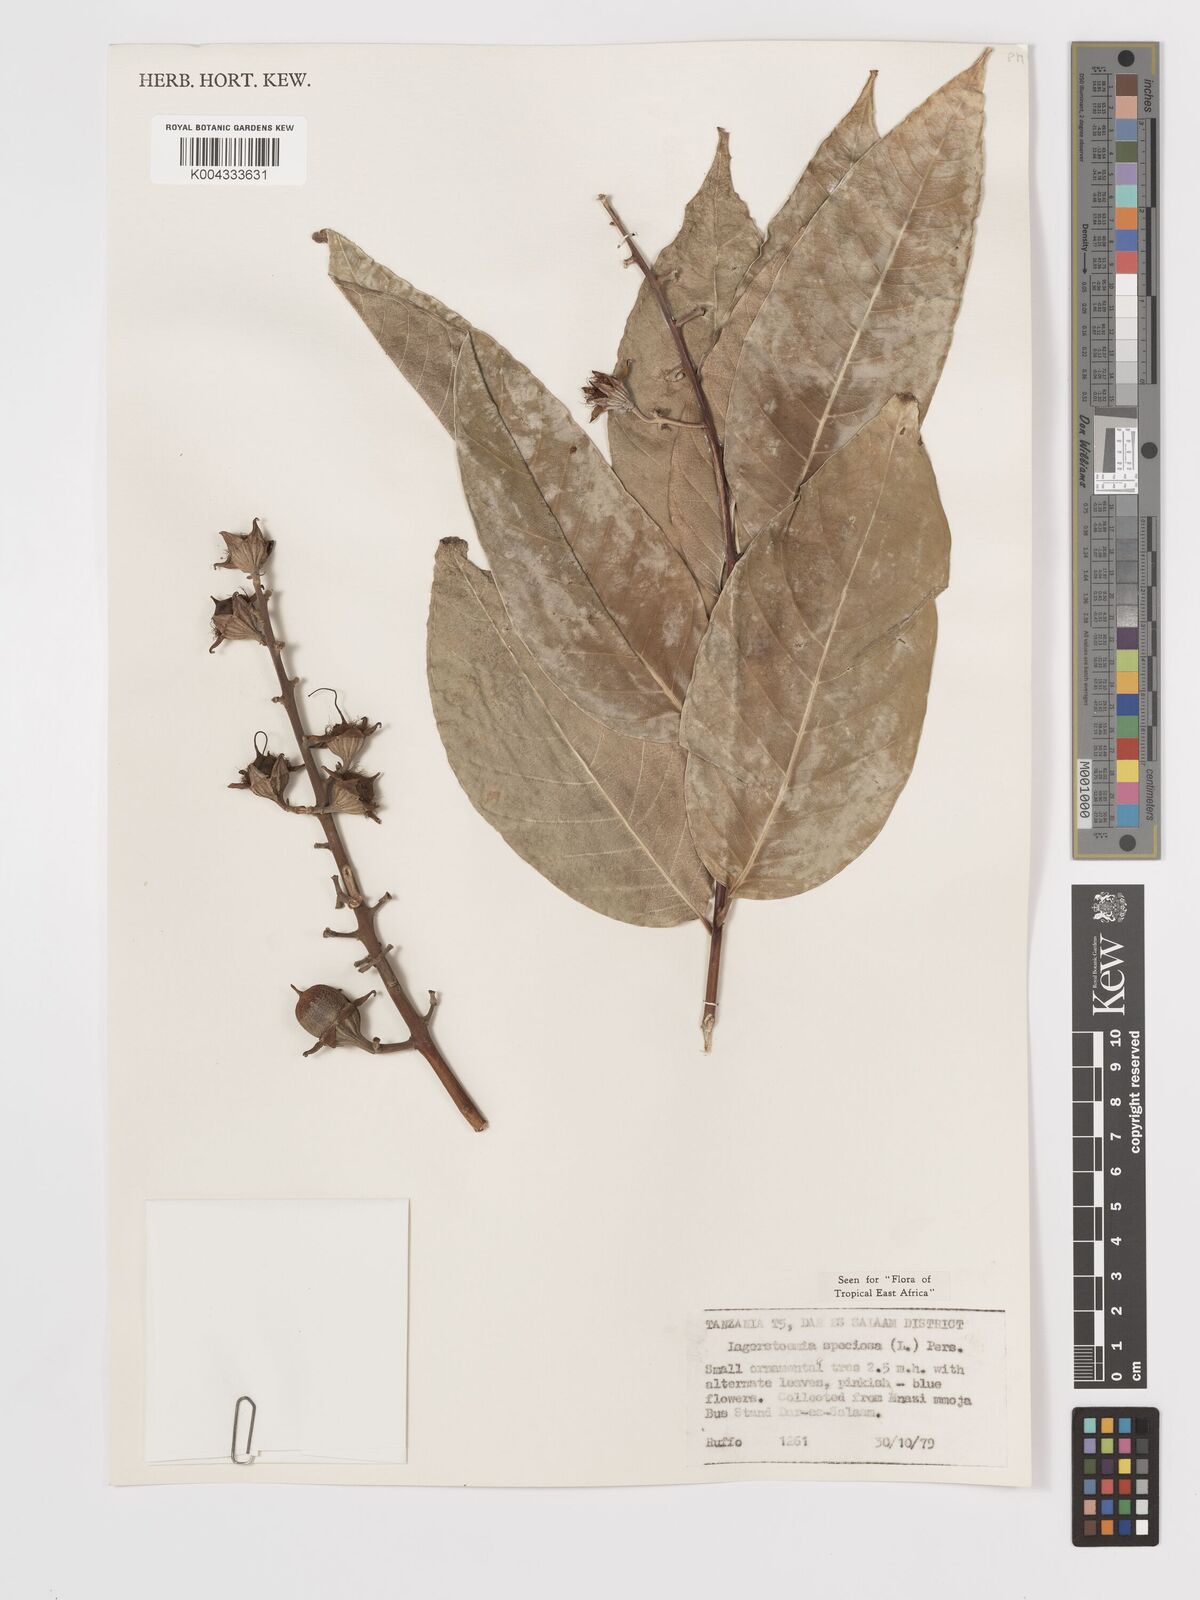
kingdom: Plantae
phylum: Tracheophyta
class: Magnoliopsida
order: Myrtales
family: Lythraceae
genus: Lagerstroemia
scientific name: Lagerstroemia speciosa
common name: Queen's crape-myrtle
